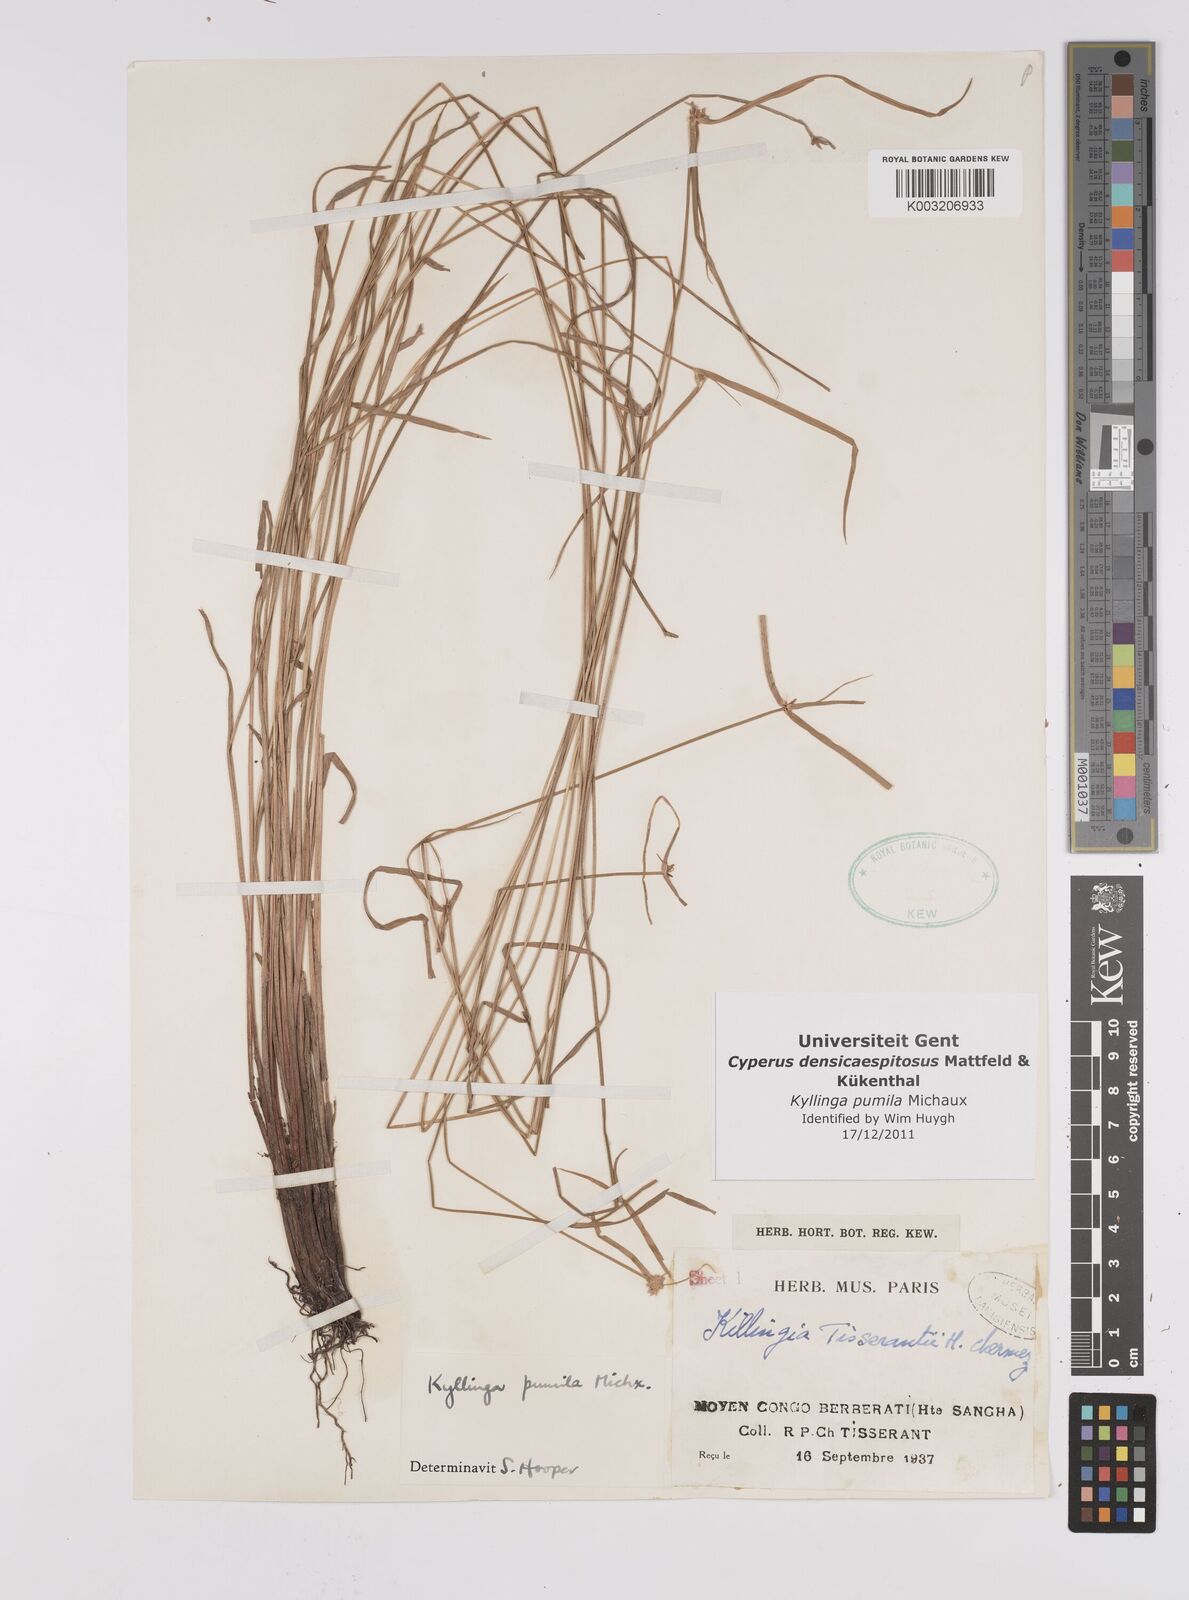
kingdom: Plantae
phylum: Tracheophyta
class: Liliopsida
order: Poales
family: Cyperaceae
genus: Cyperus
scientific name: Cyperus hortensis
